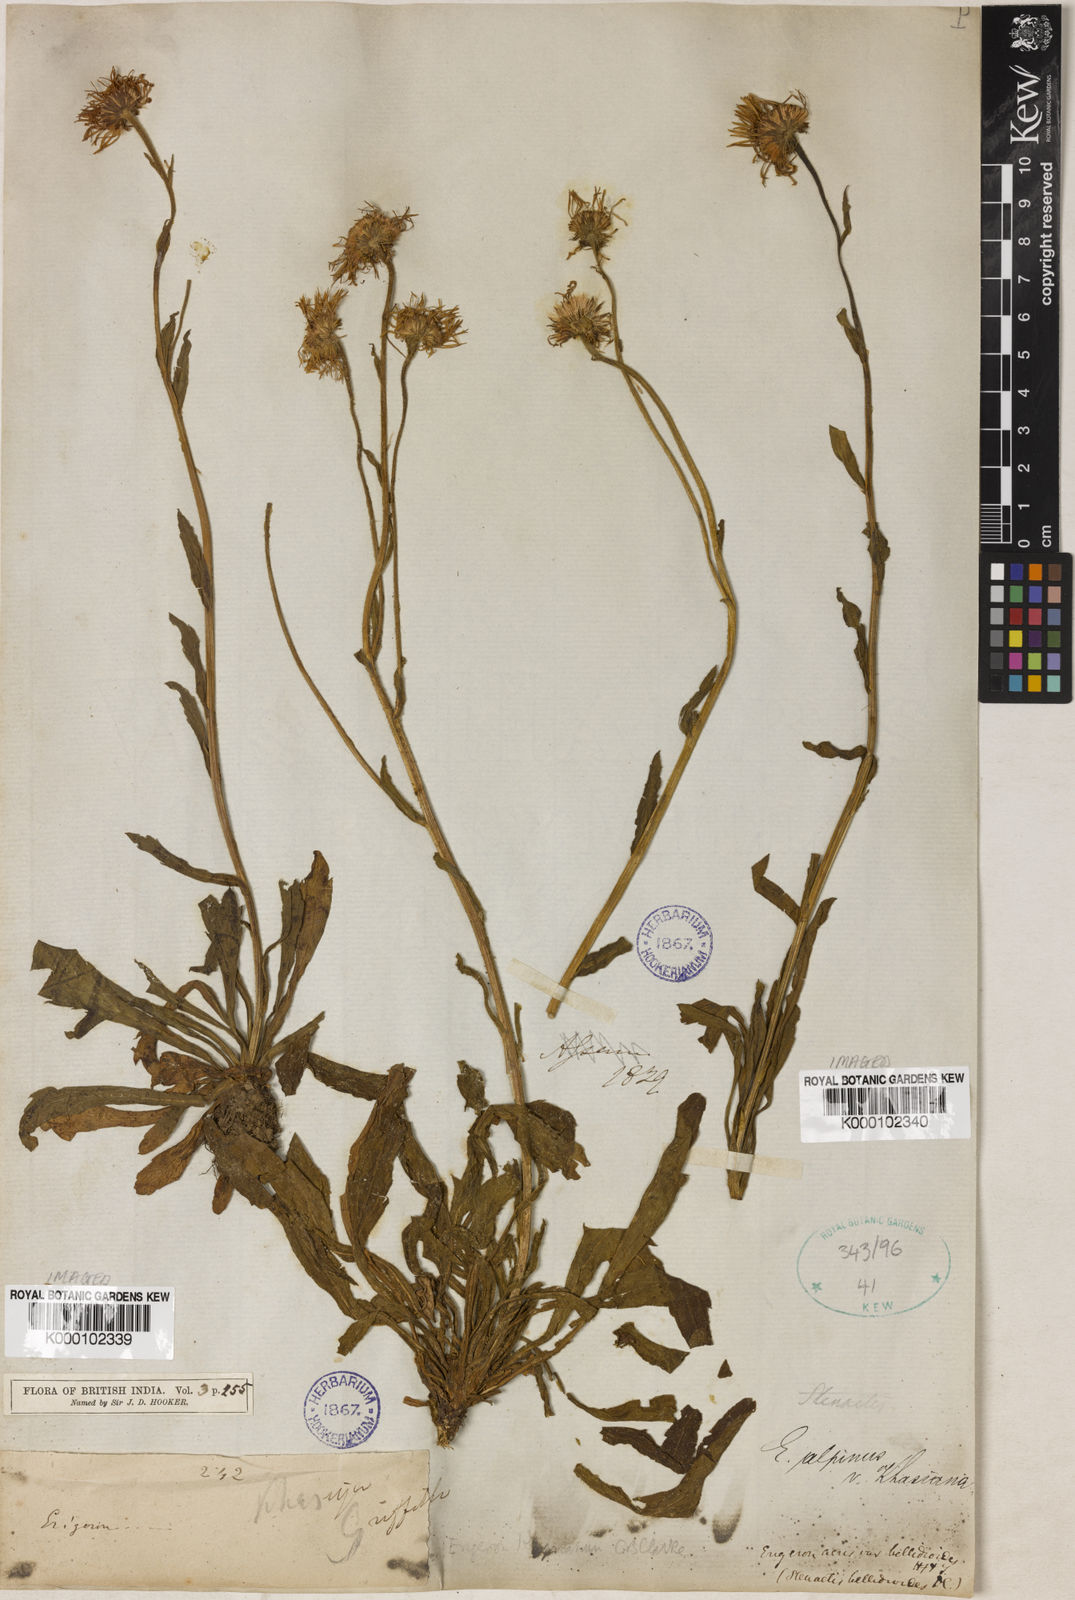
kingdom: Plantae
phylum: Tracheophyta
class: Magnoliopsida
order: Asterales
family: Asteraceae
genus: Erigeron
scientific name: Erigeron
